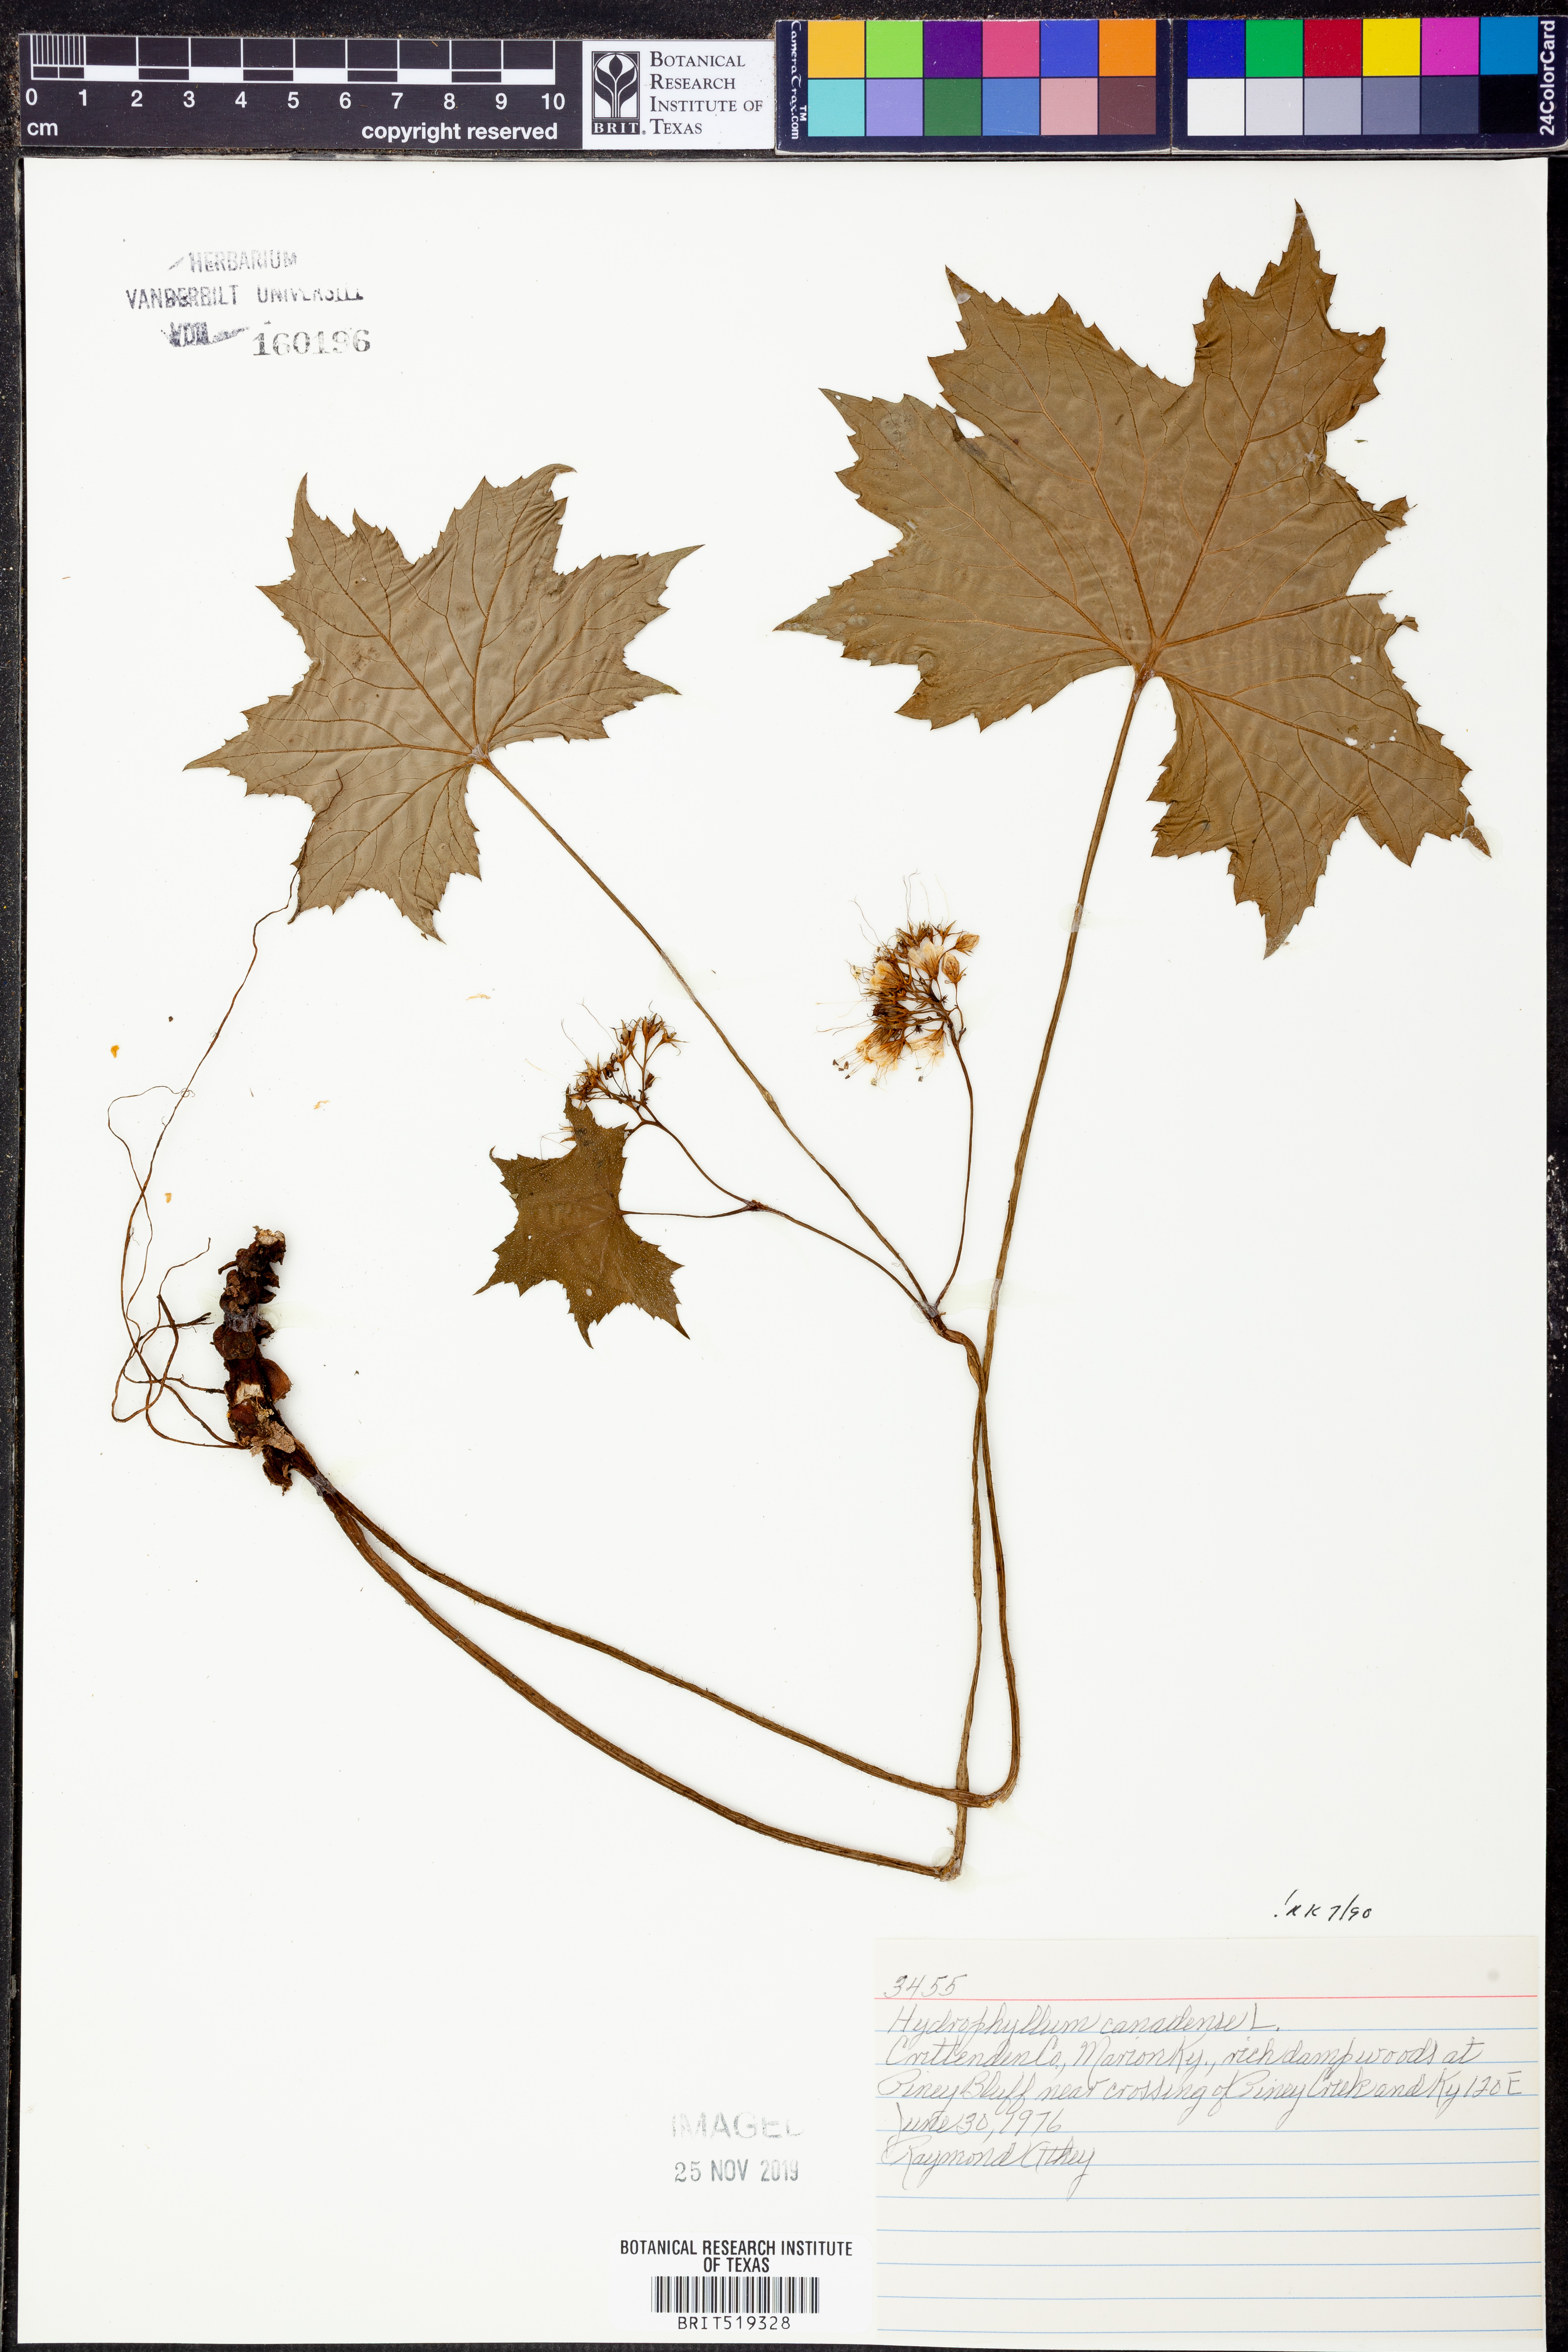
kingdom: Plantae
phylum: Tracheophyta
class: Magnoliopsida
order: Boraginales
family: Hydrophyllaceae
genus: Hydrophyllum
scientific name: Hydrophyllum canadense
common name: Canada waterleaf
